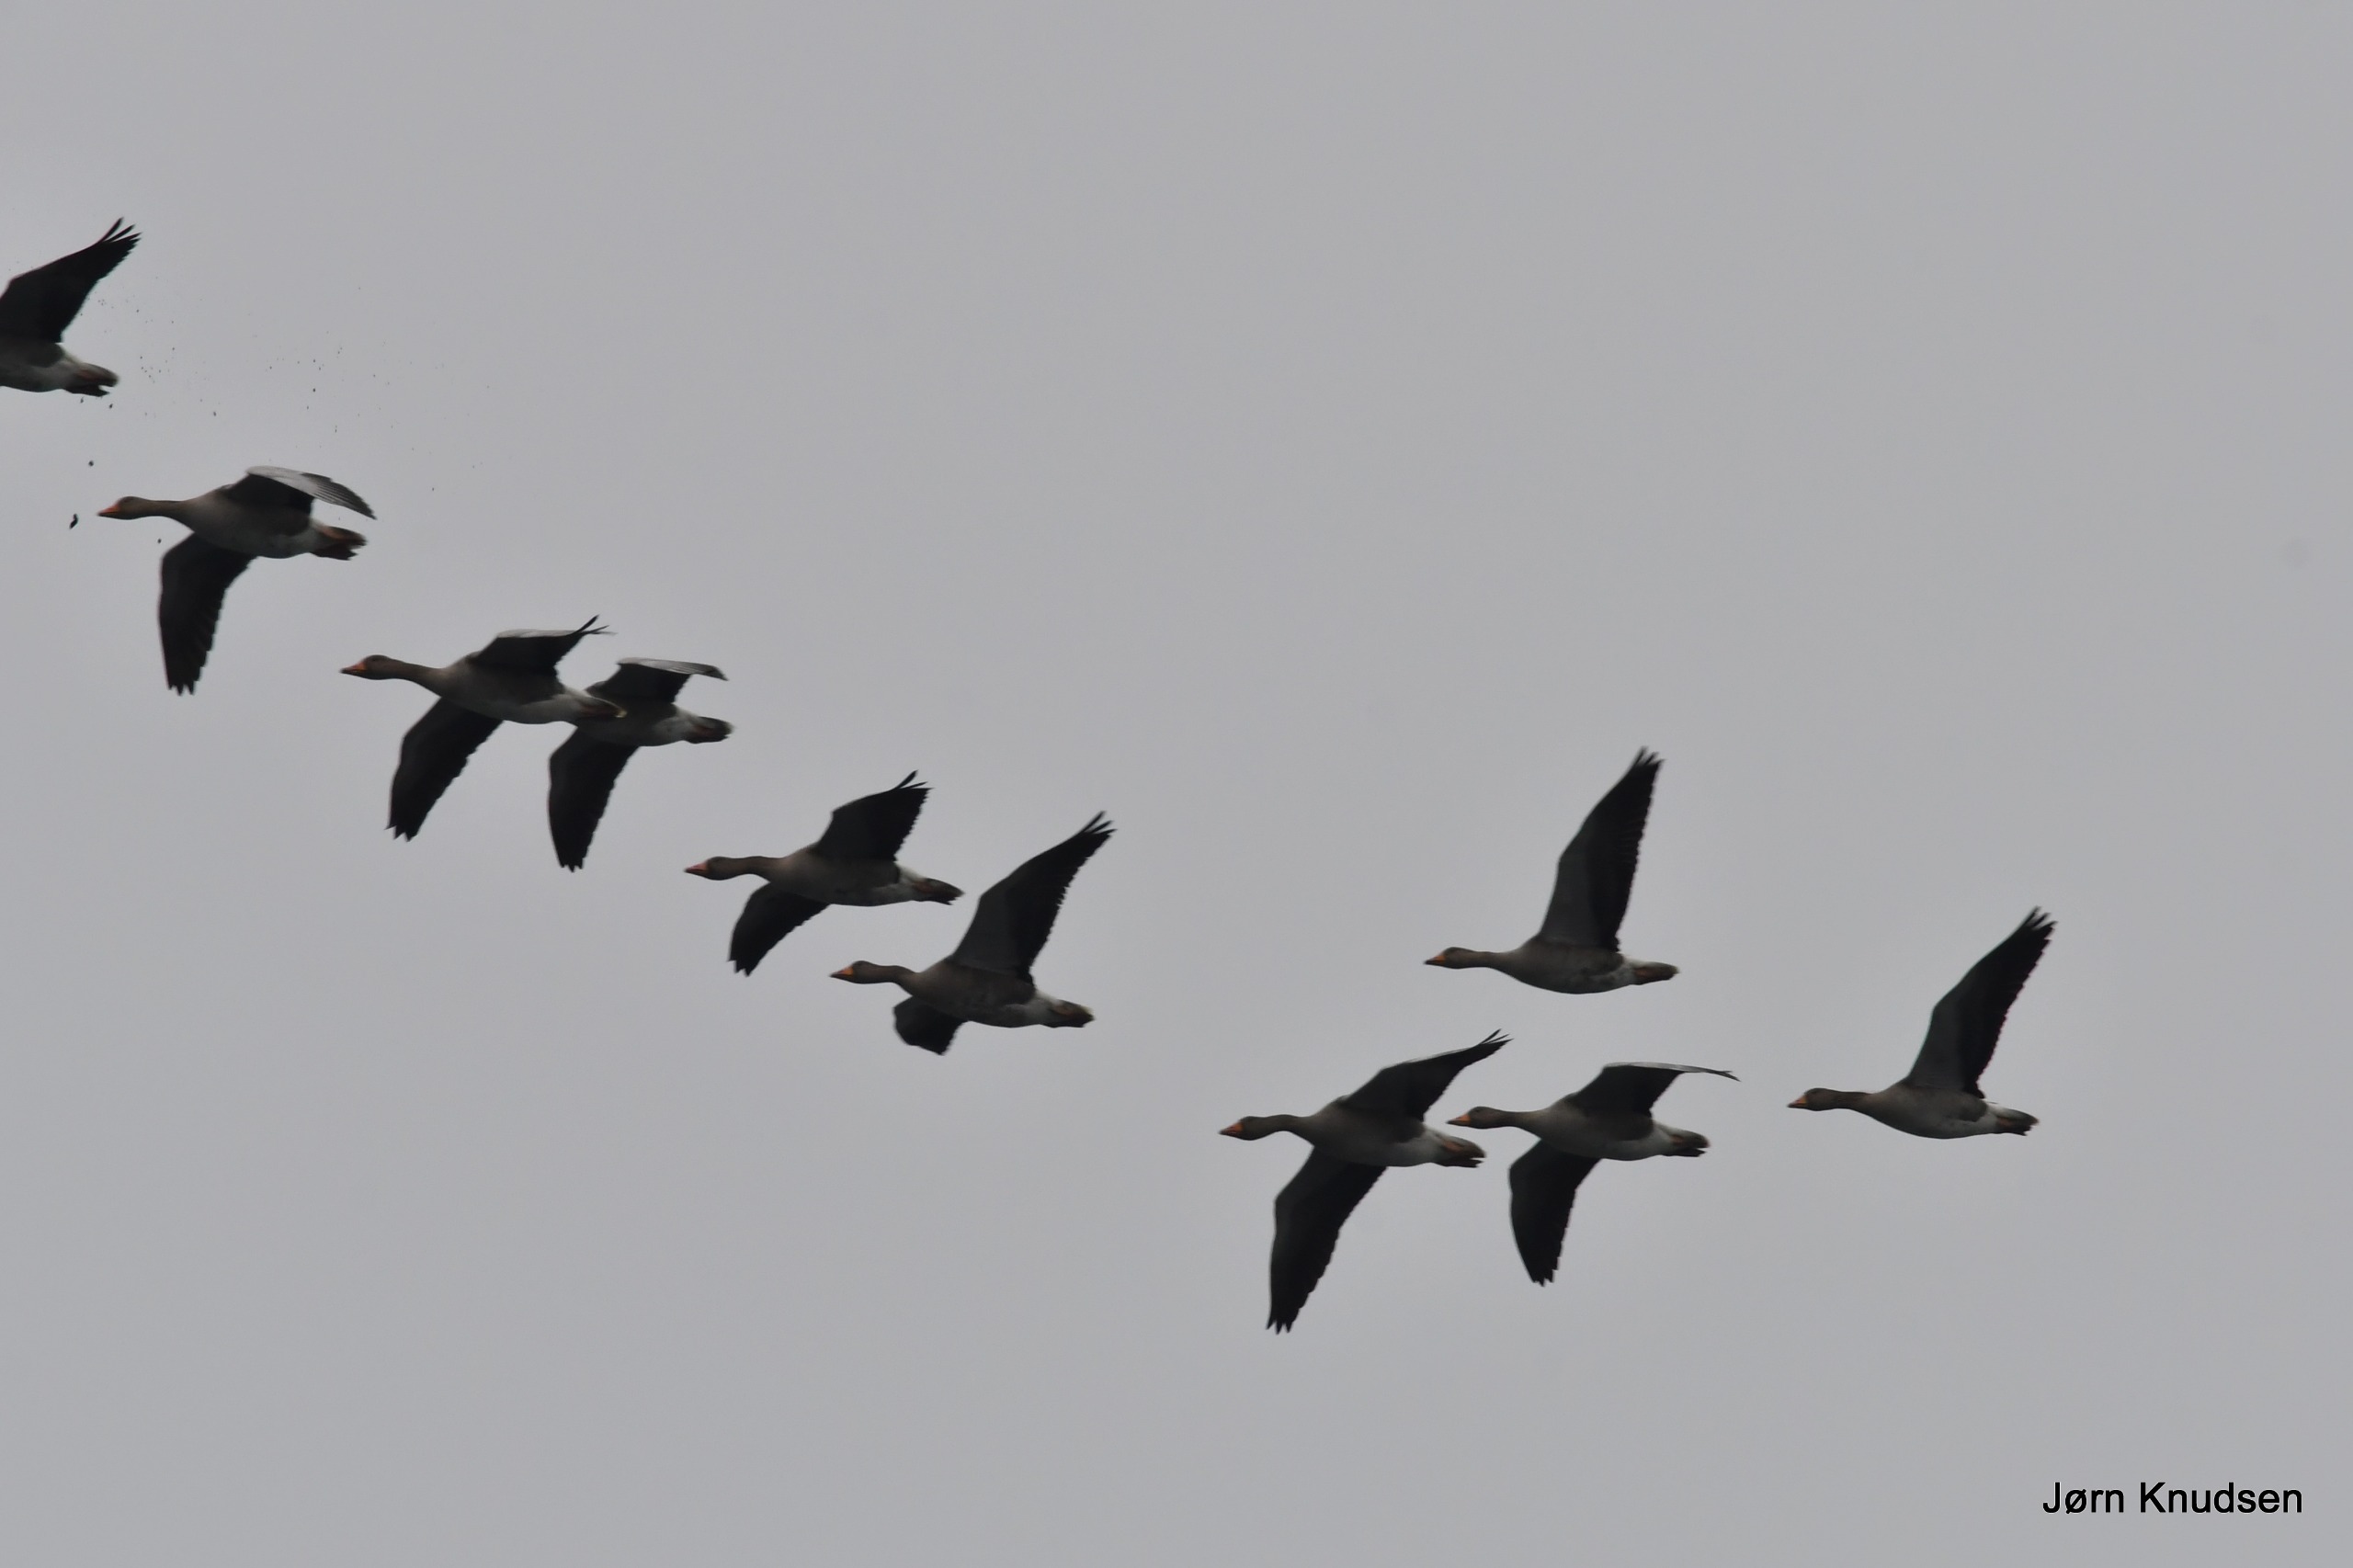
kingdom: Animalia
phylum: Chordata
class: Aves
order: Anseriformes
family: Anatidae
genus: Anser
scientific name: Anser anser
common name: Grågås
